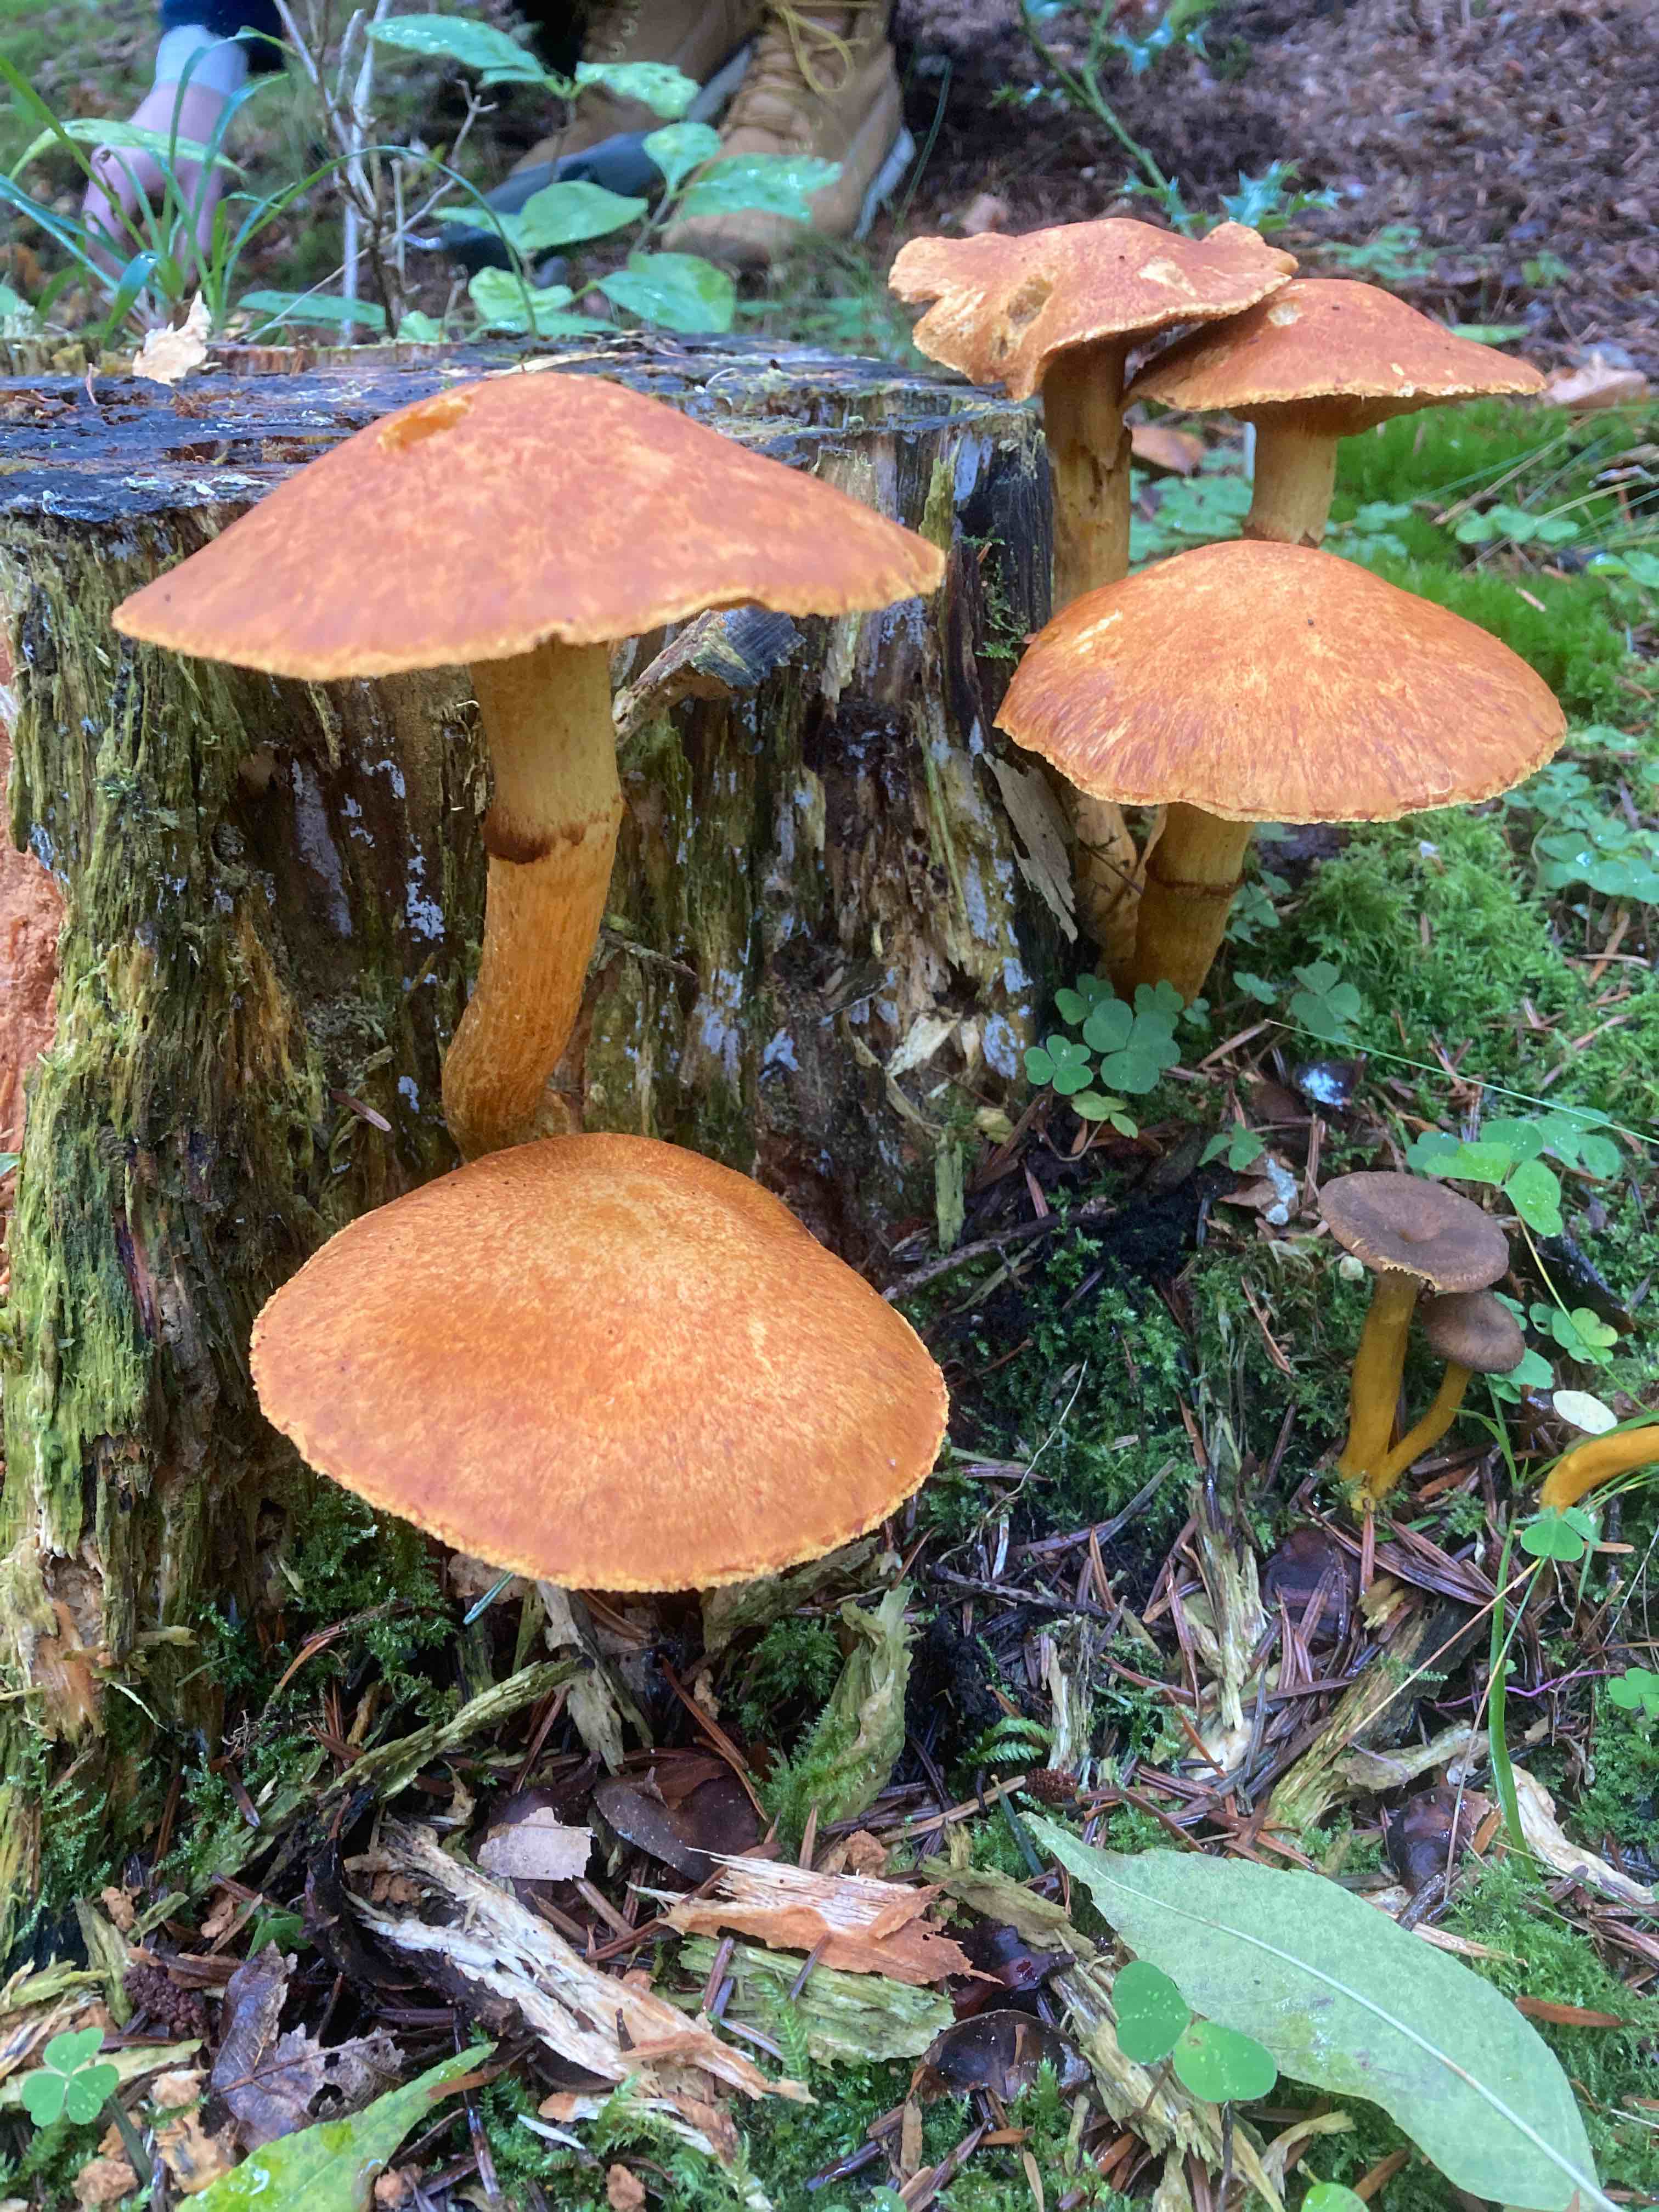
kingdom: Fungi
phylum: Basidiomycota
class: Agaricomycetes
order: Agaricales
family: Hymenogastraceae
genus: Gymnopilus
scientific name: Gymnopilus spectabilis
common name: fibret flammehat
